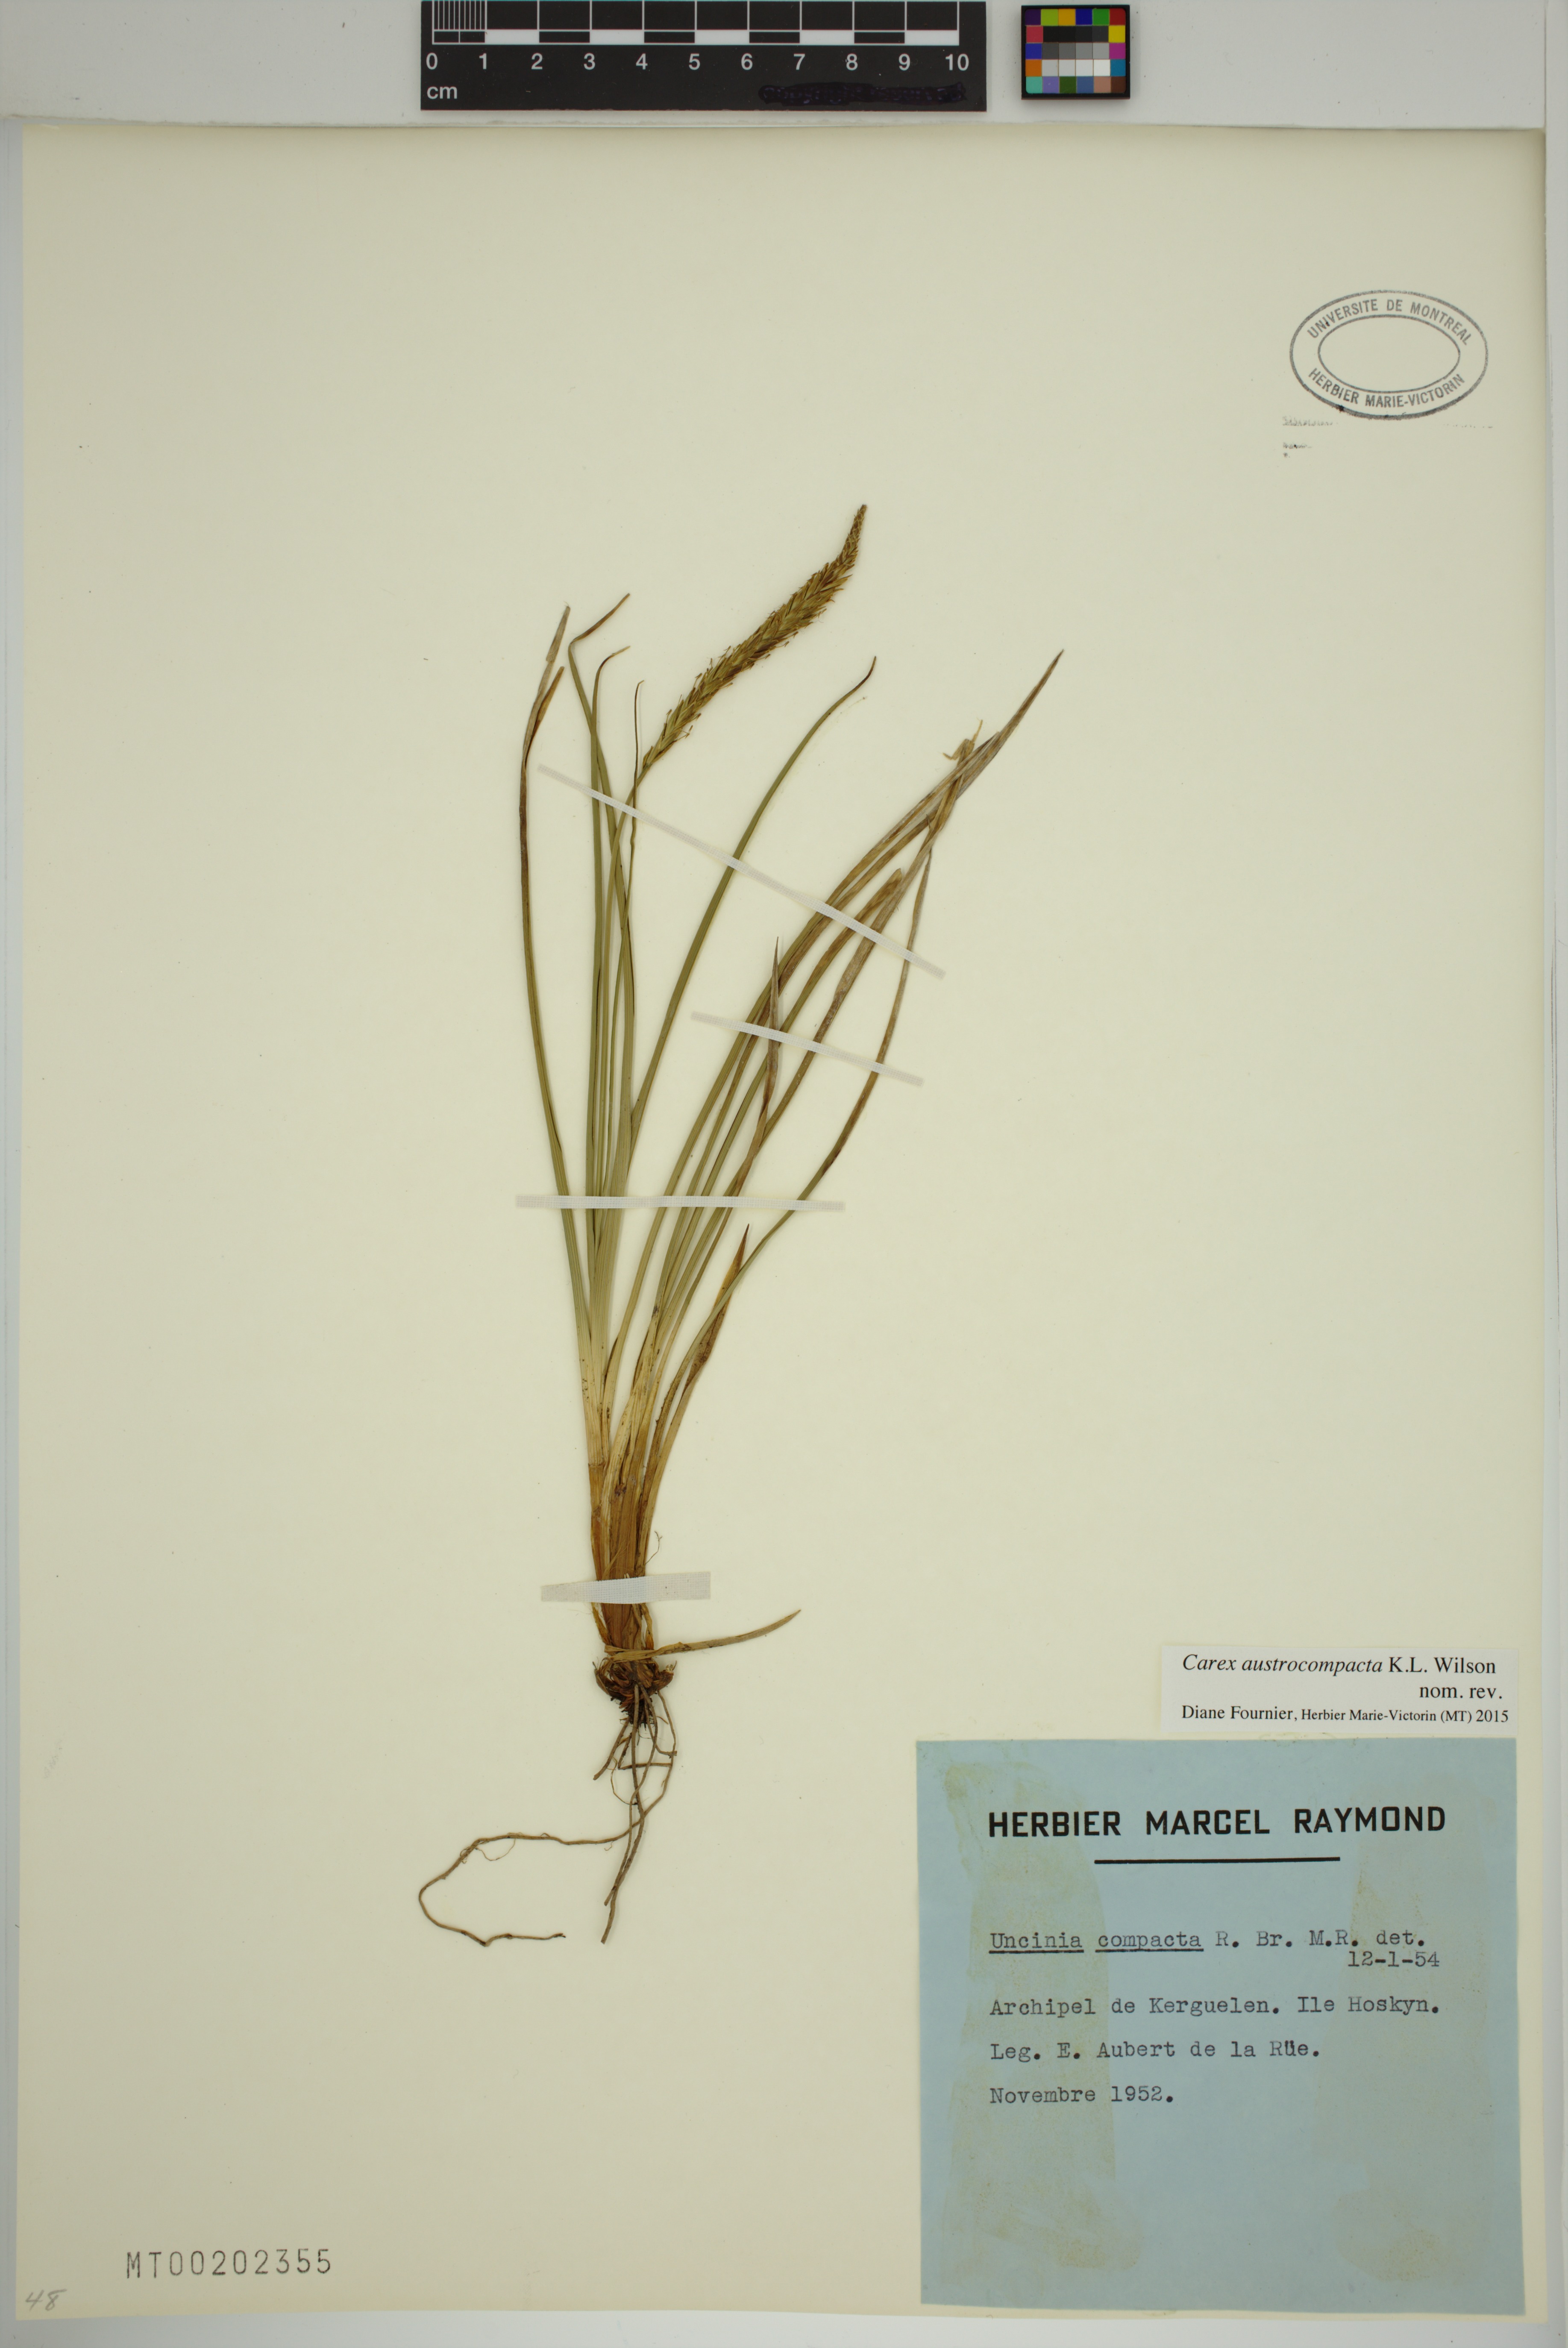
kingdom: Plantae
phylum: Tracheophyta
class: Liliopsida
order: Poales
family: Cyperaceae
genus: Carex
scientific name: Carex austrocompacta
